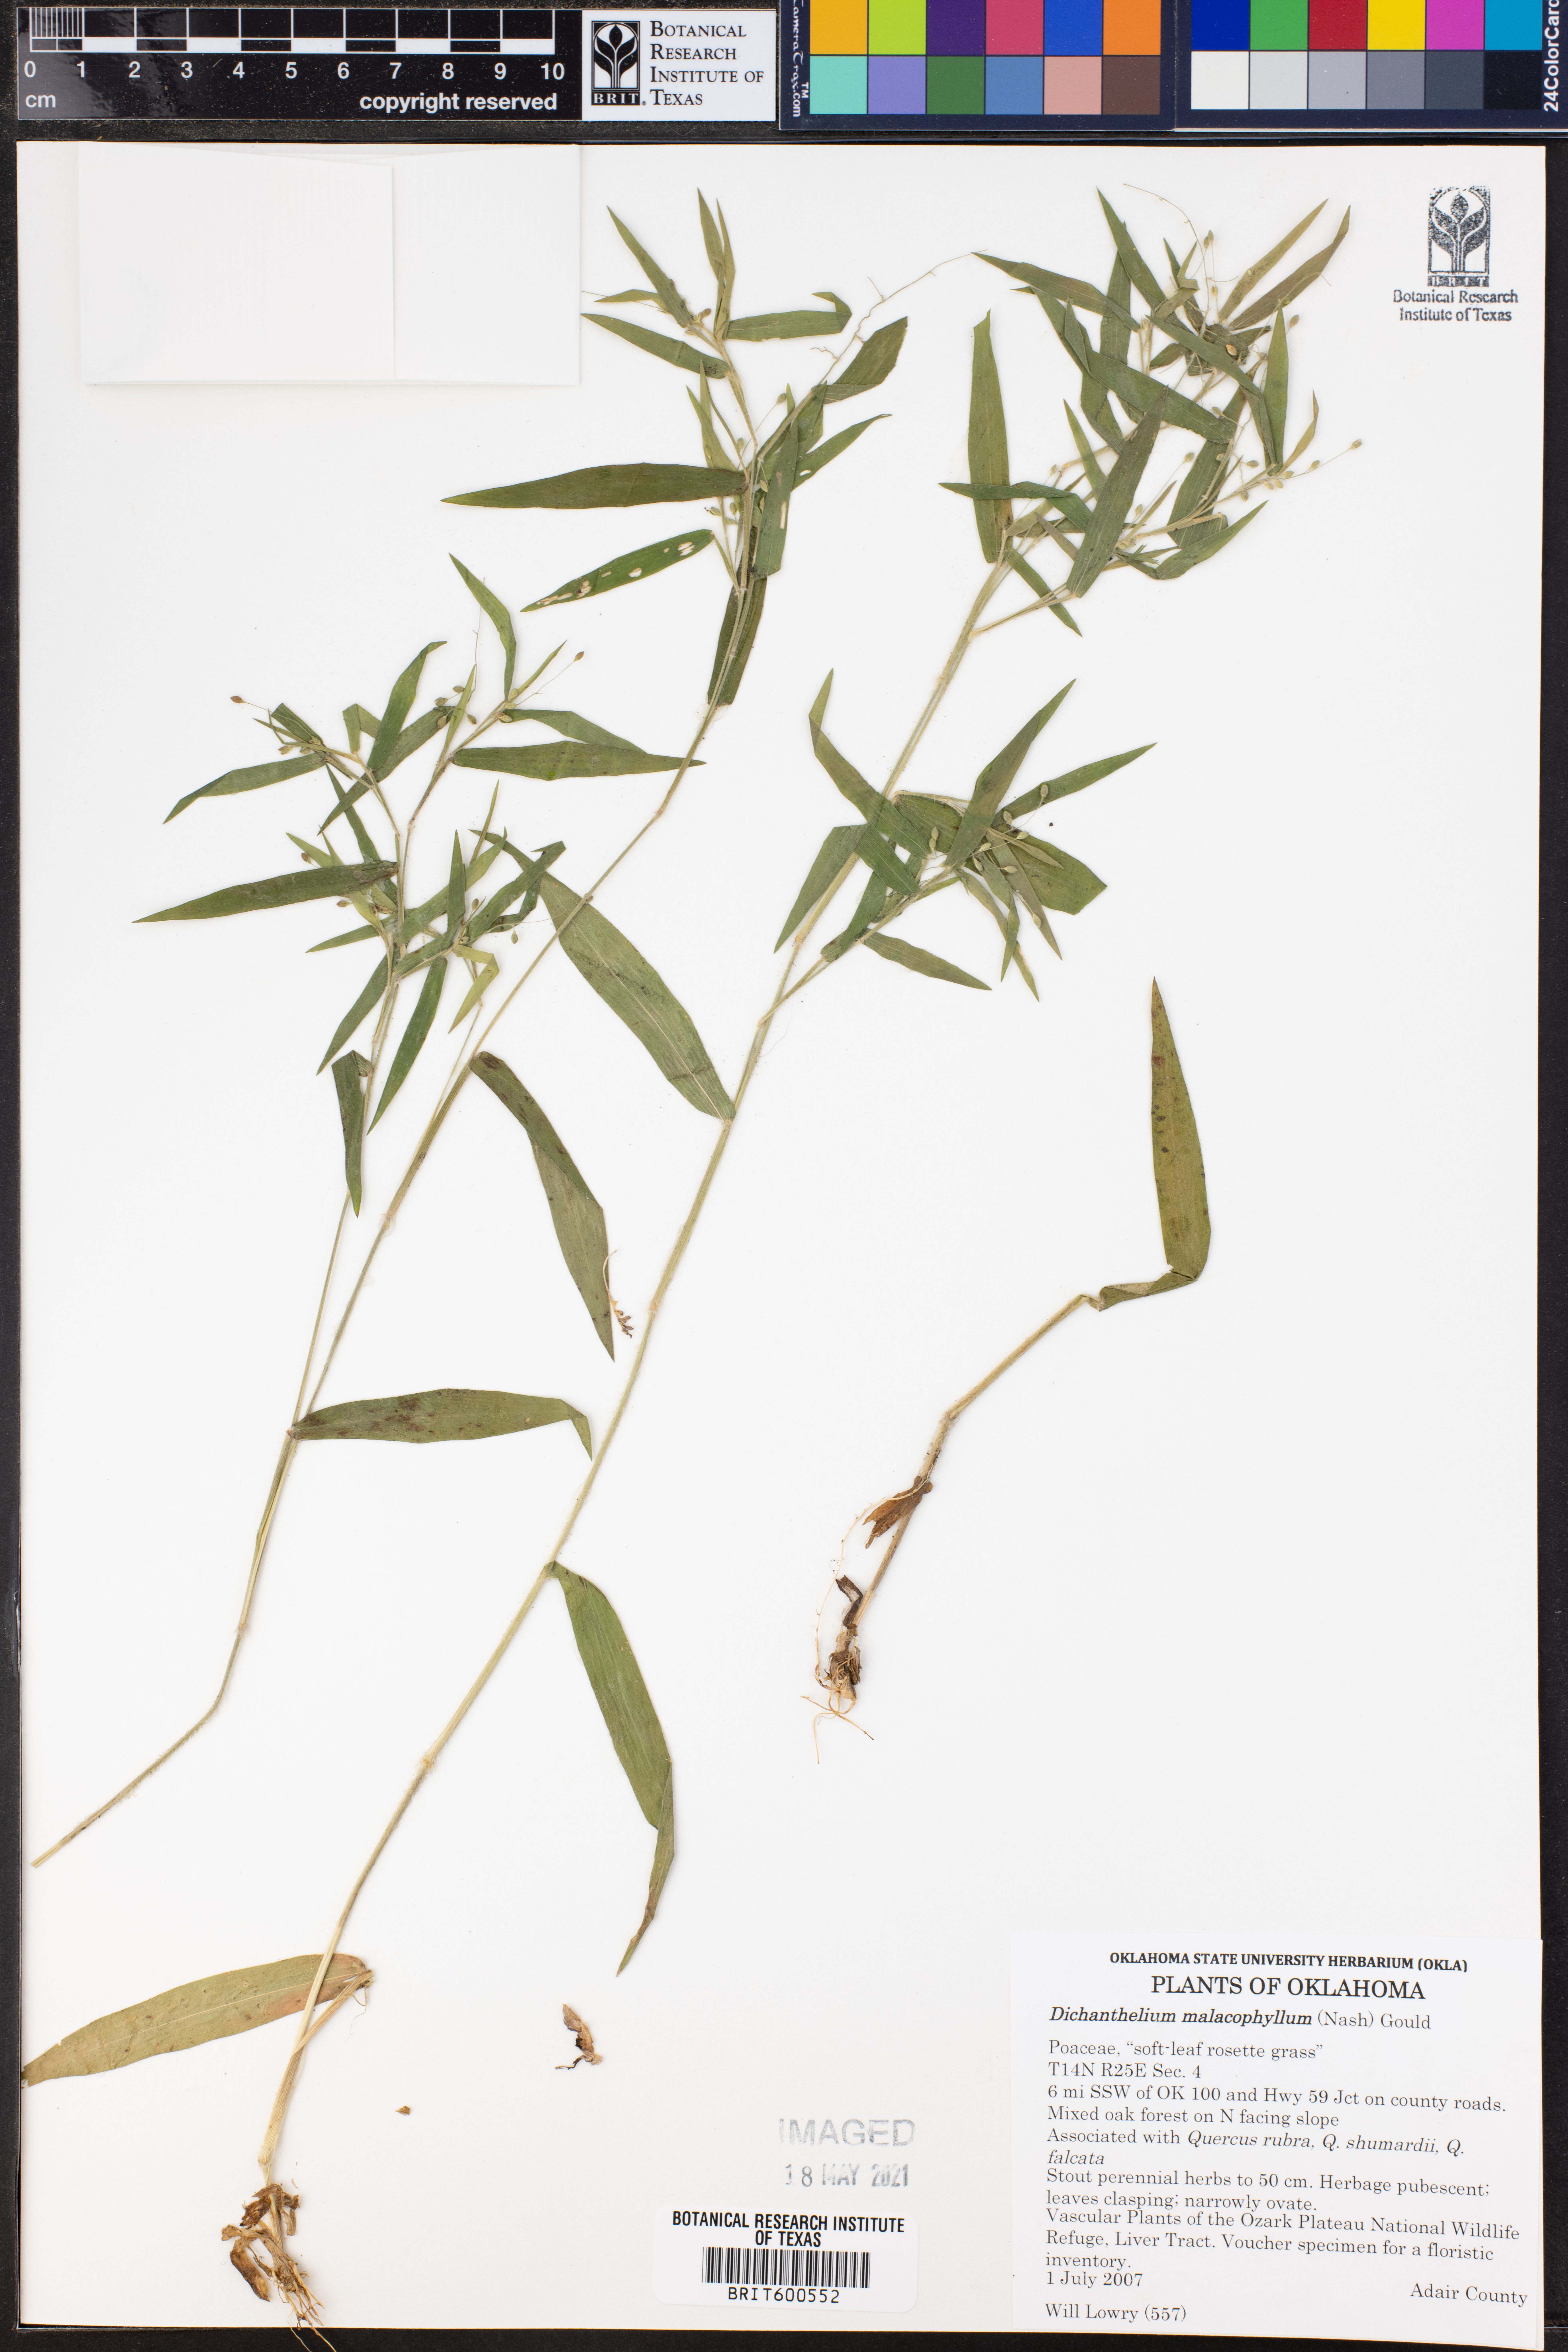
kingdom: Plantae
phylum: Tracheophyta
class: Liliopsida
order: Poales
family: Poaceae
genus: Dichanthelium
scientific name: Dichanthelium malacophyllum
